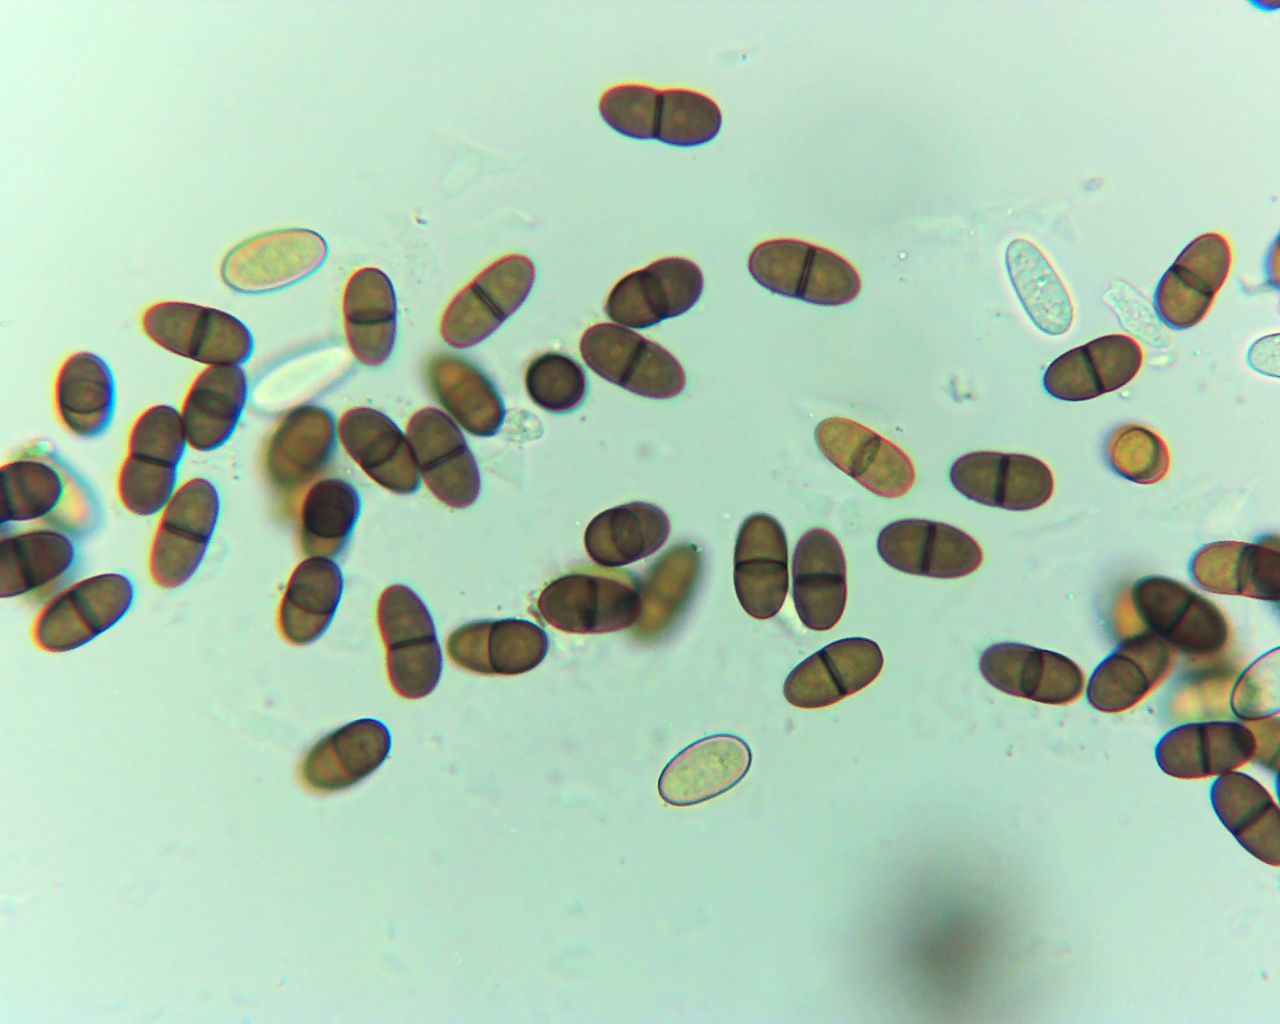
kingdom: Fungi
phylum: Ascomycota
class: Dothideomycetes
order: Botryosphaeriales
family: Botryosphaeriaceae
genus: Diplodia
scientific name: Diplodia rubi
